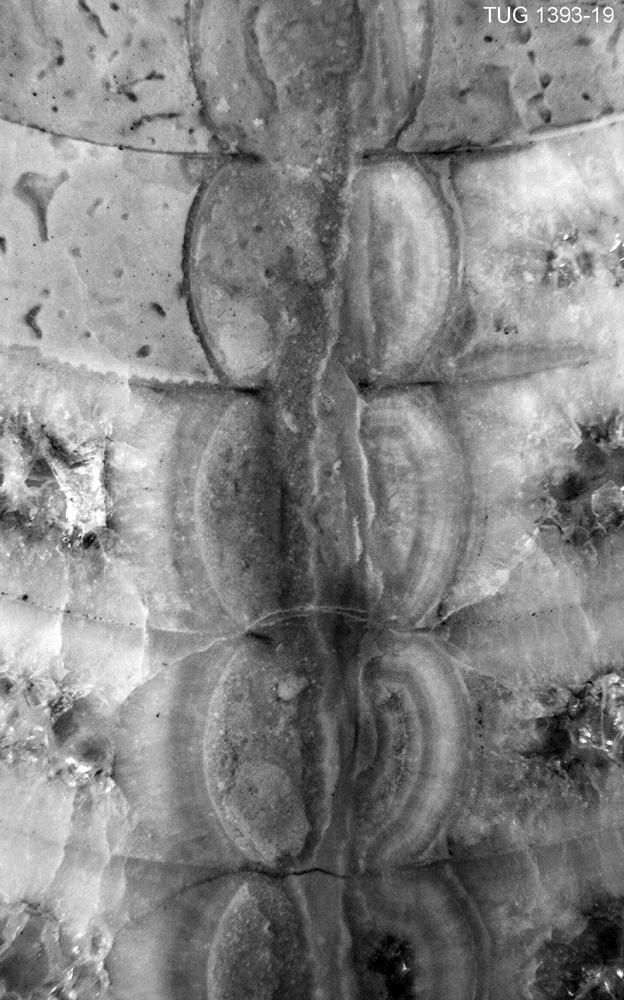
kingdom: Animalia
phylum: Mollusca
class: Cephalopoda
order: Nautilida
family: Nautilidae
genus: Orthonybyoceras
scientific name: Orthonybyoceras isakari
